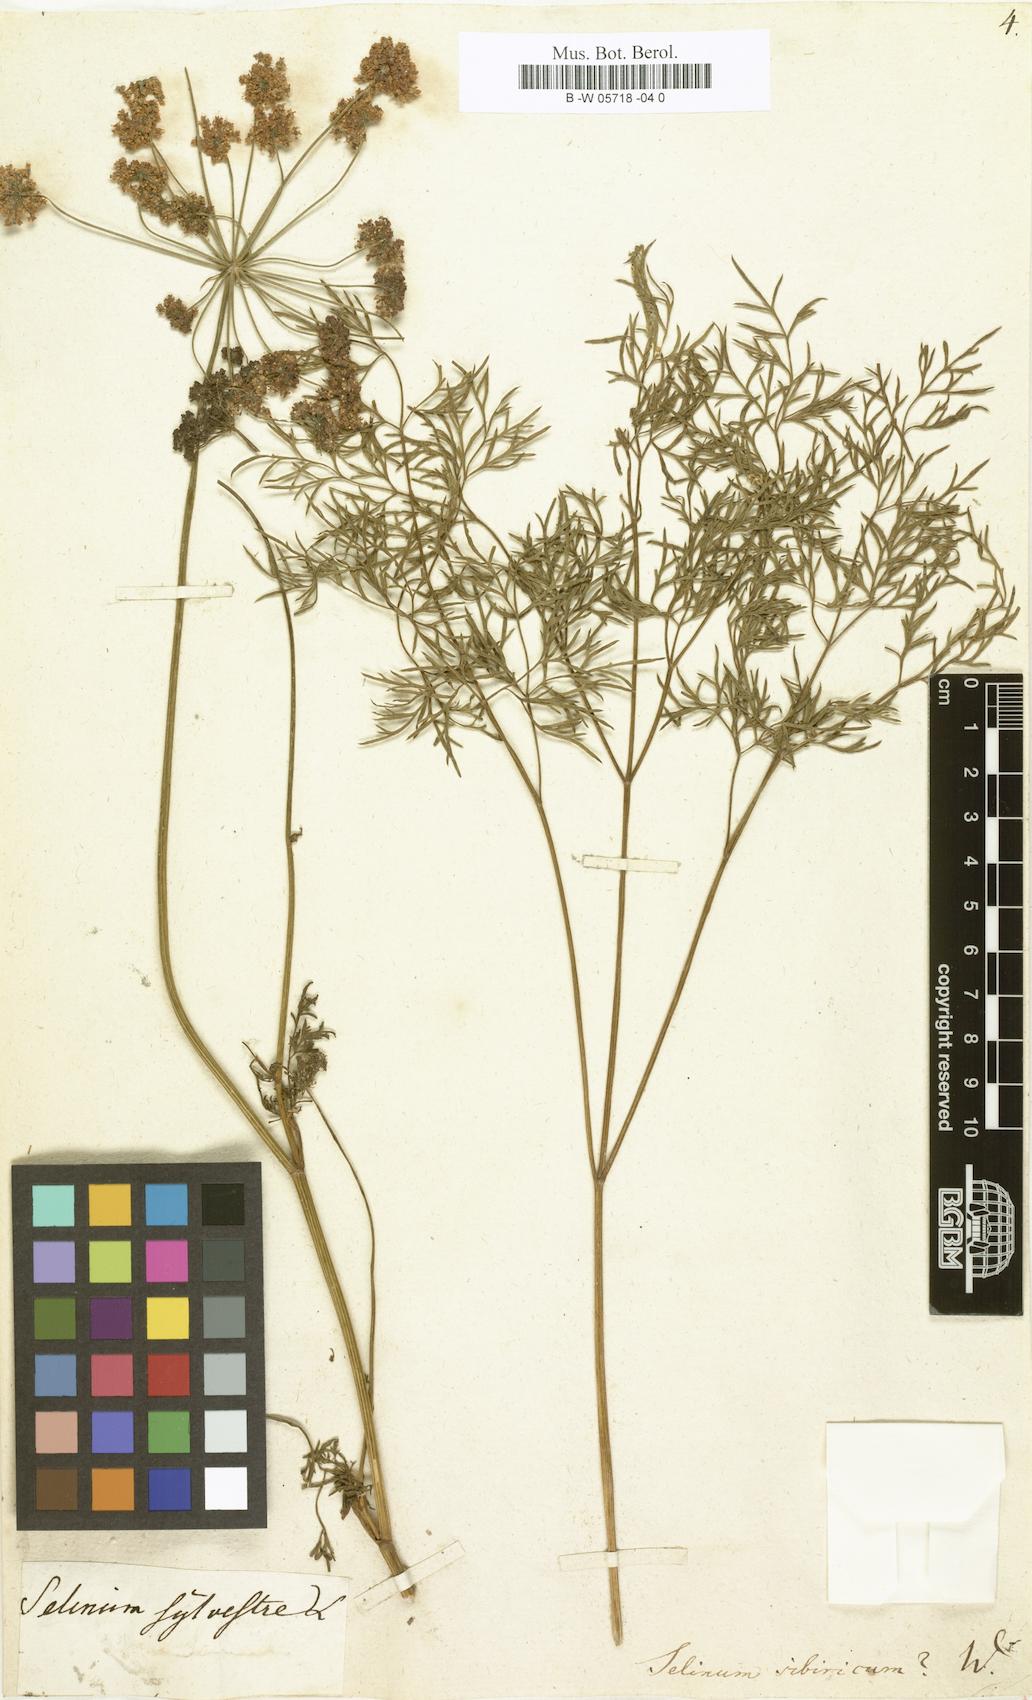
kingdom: Plantae
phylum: Tracheophyta
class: Magnoliopsida
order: Apiales
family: Apiaceae
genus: Pachypleurum
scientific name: Pachypleurum mutellinoides
